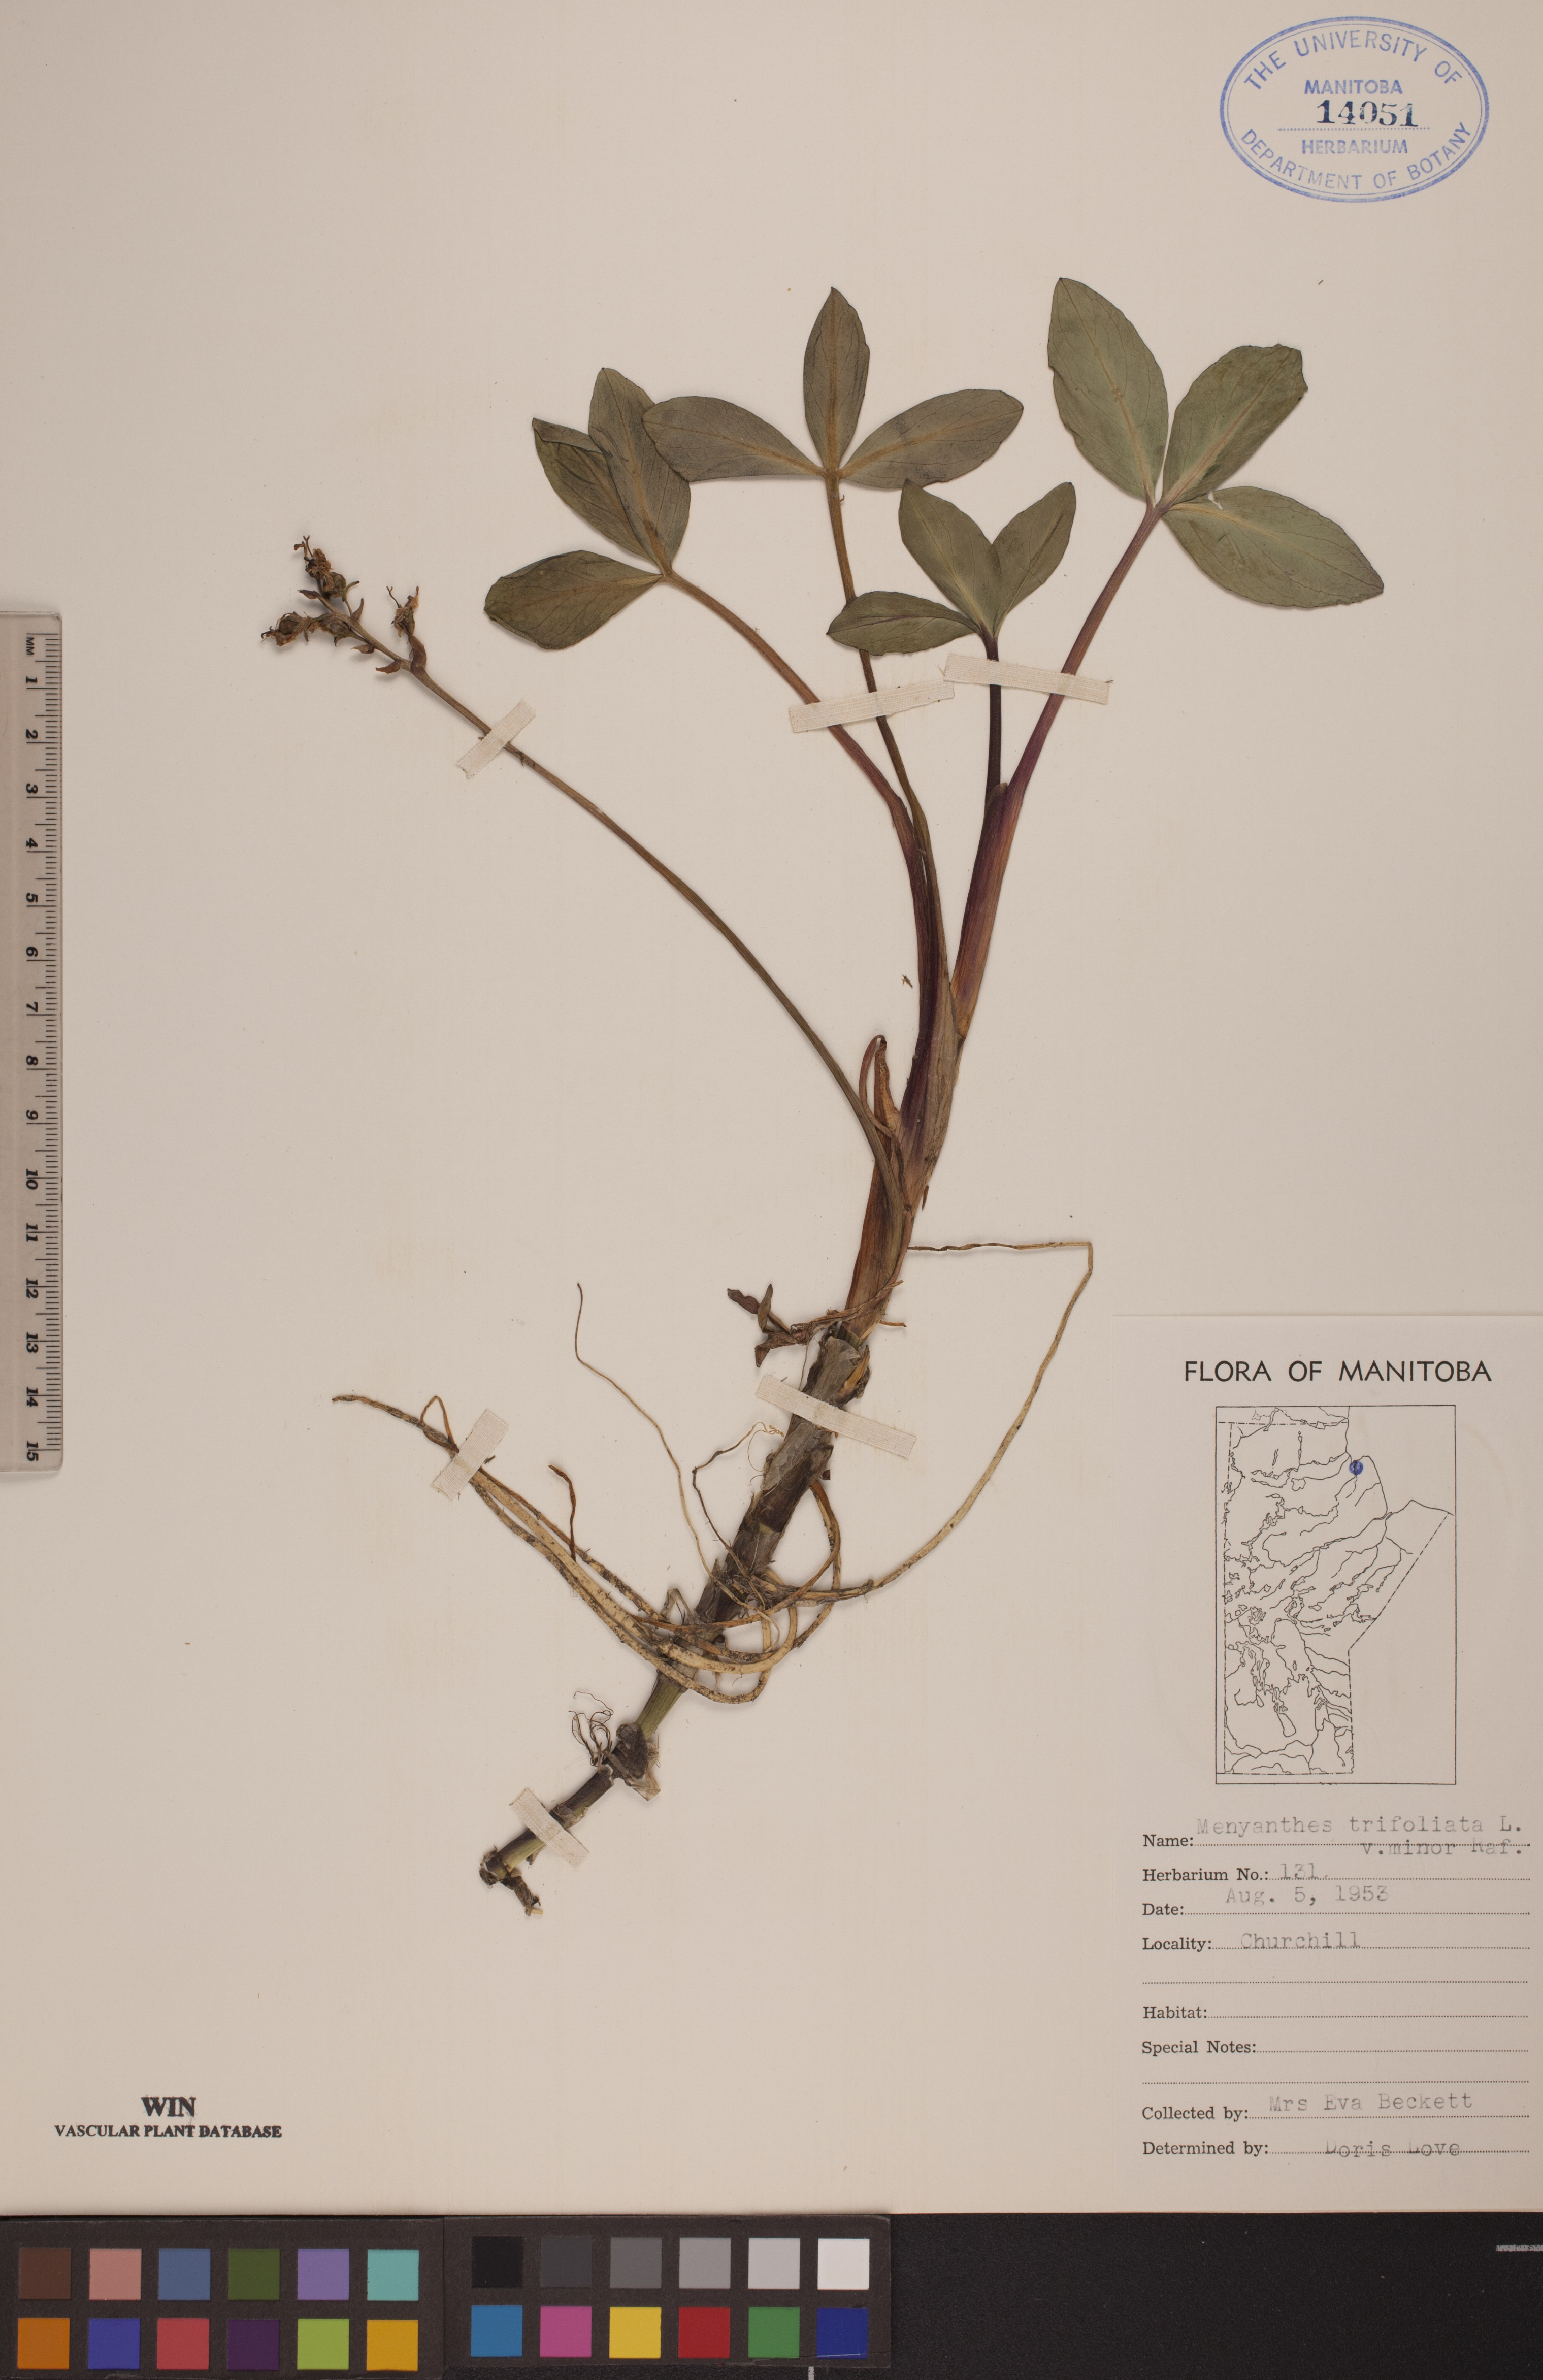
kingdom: Plantae
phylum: Tracheophyta
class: Magnoliopsida
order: Asterales
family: Menyanthaceae
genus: Menyanthes
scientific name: Menyanthes trifoliata
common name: Bogbean
